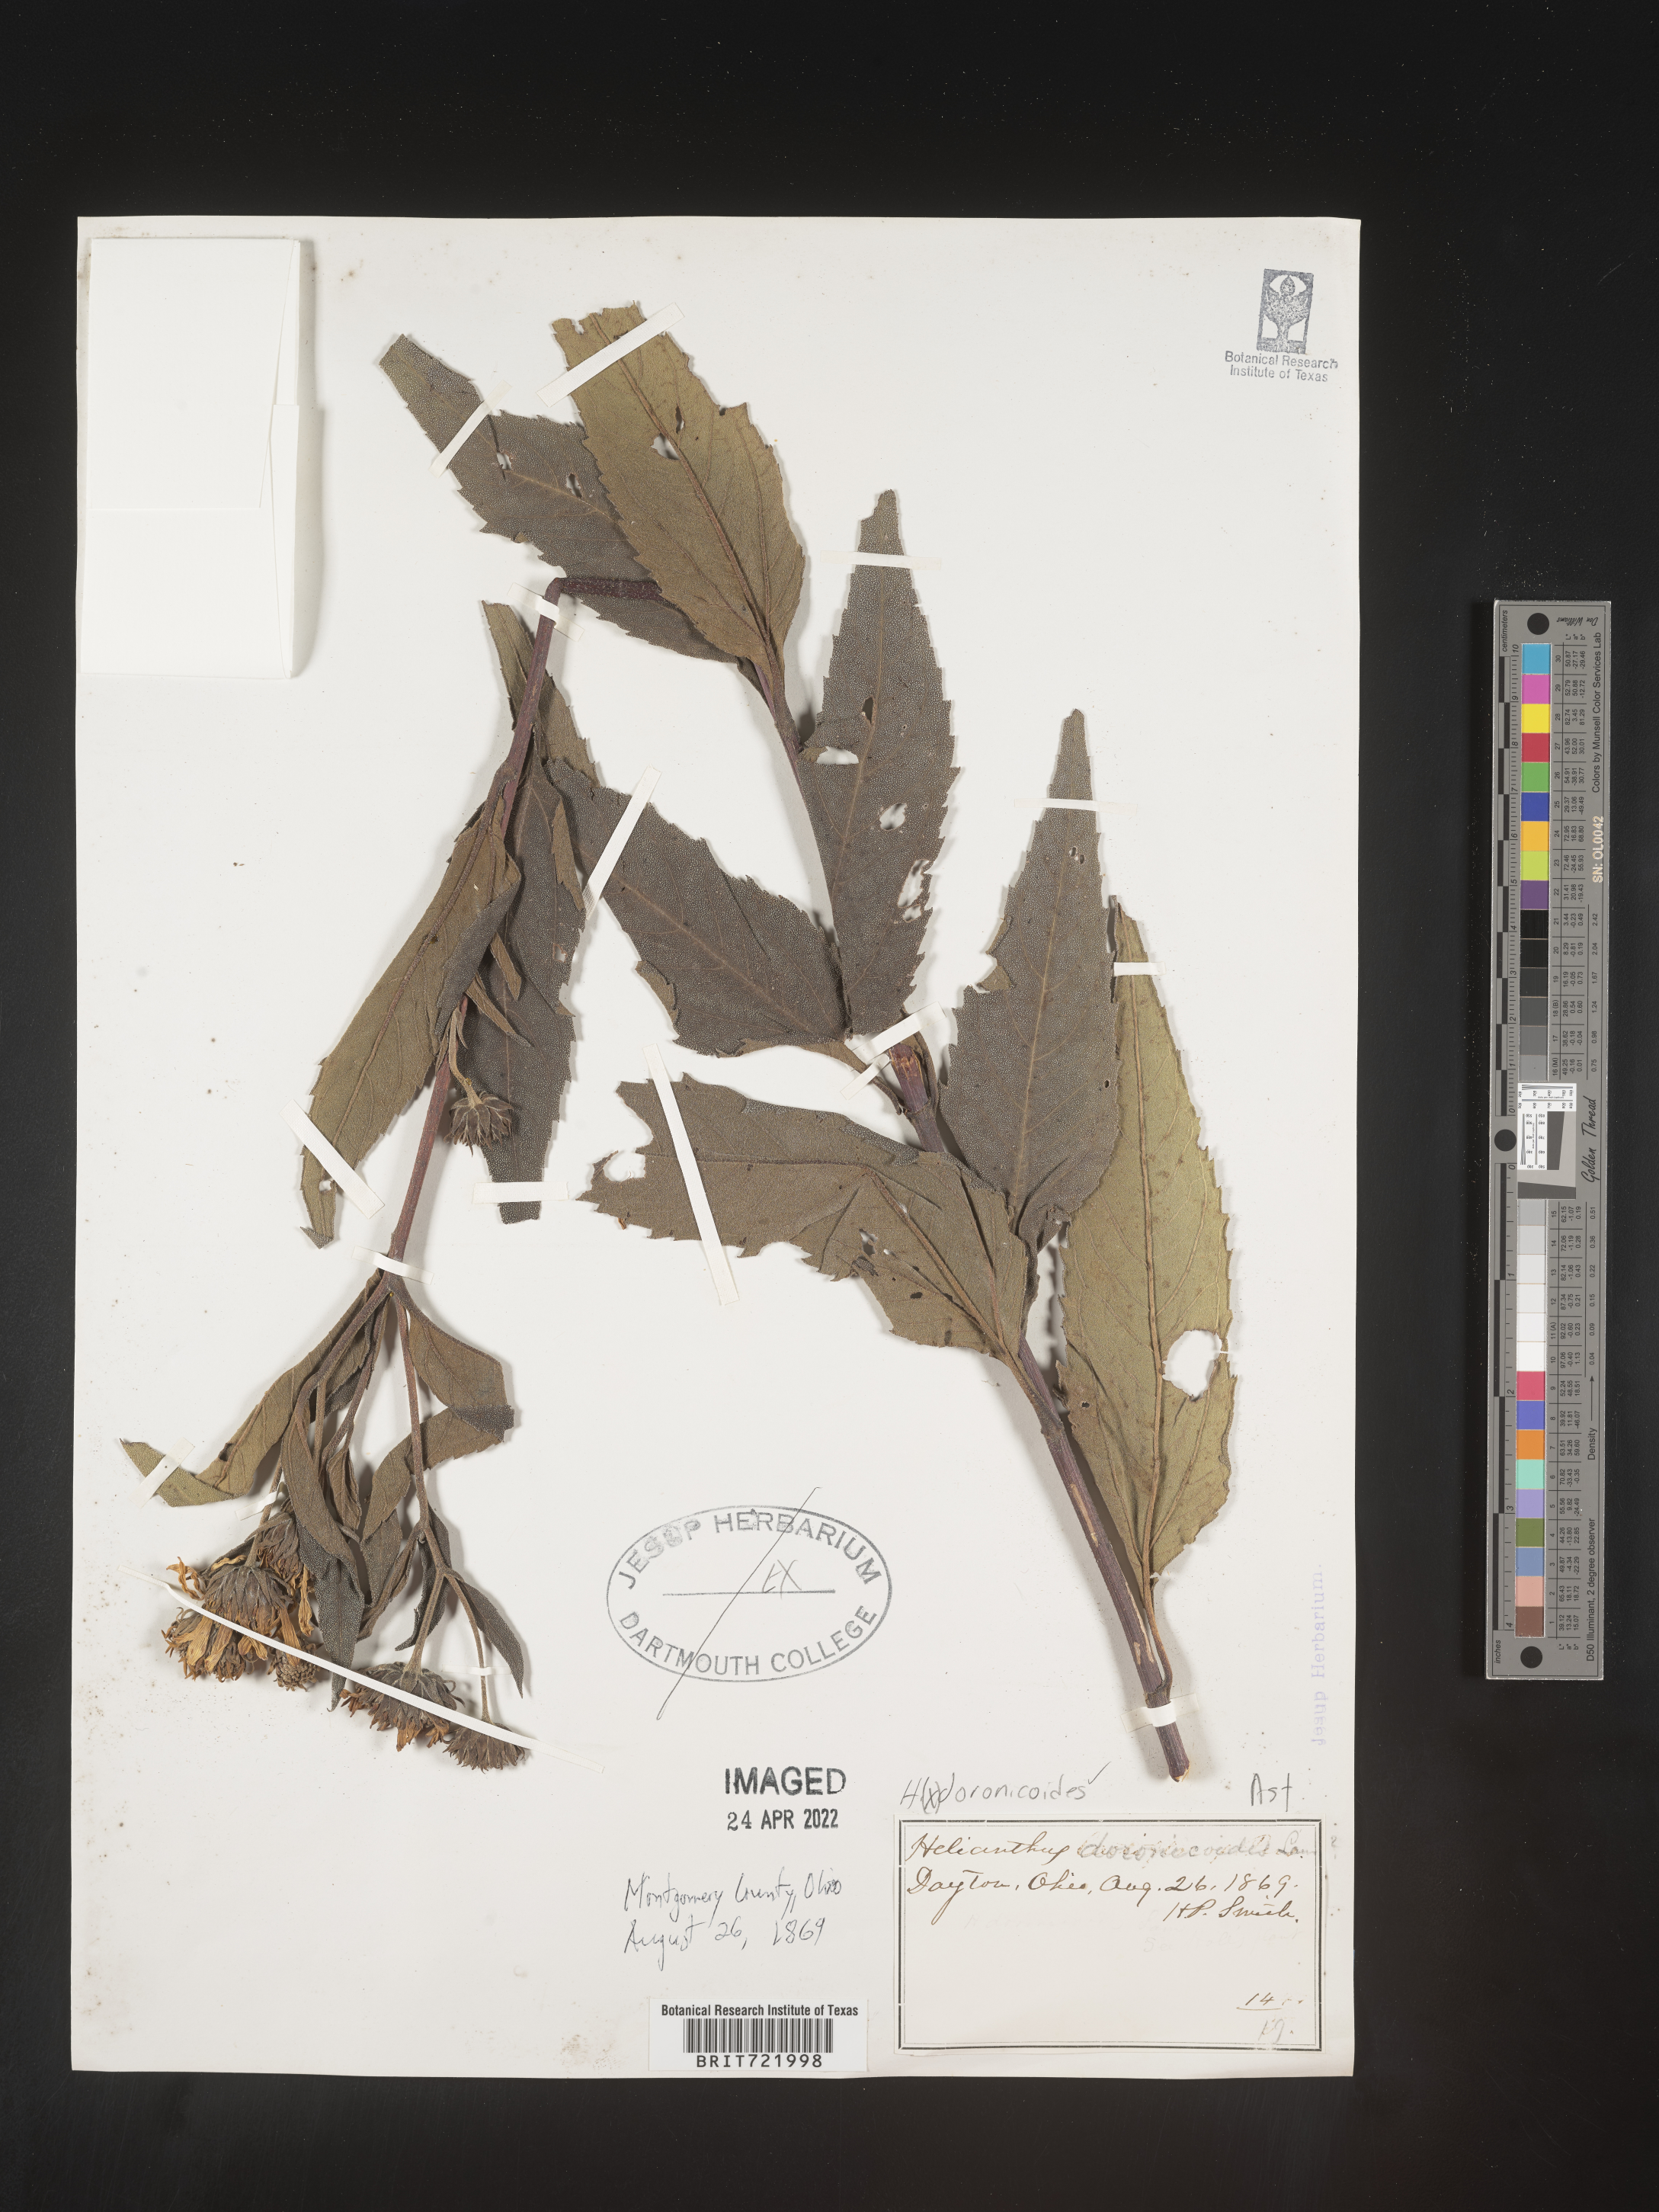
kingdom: Plantae
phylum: Tracheophyta
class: Magnoliopsida
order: Asterales
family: Asteraceae
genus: Helianthus
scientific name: Helianthus
